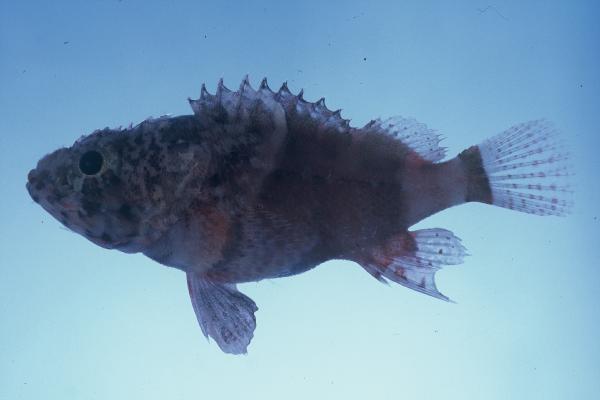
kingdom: Animalia
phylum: Chordata
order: Scorpaeniformes
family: Scorpaenidae
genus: Scorpaenodes
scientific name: Scorpaenodes parvipinnis
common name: Coral scorpionfish
